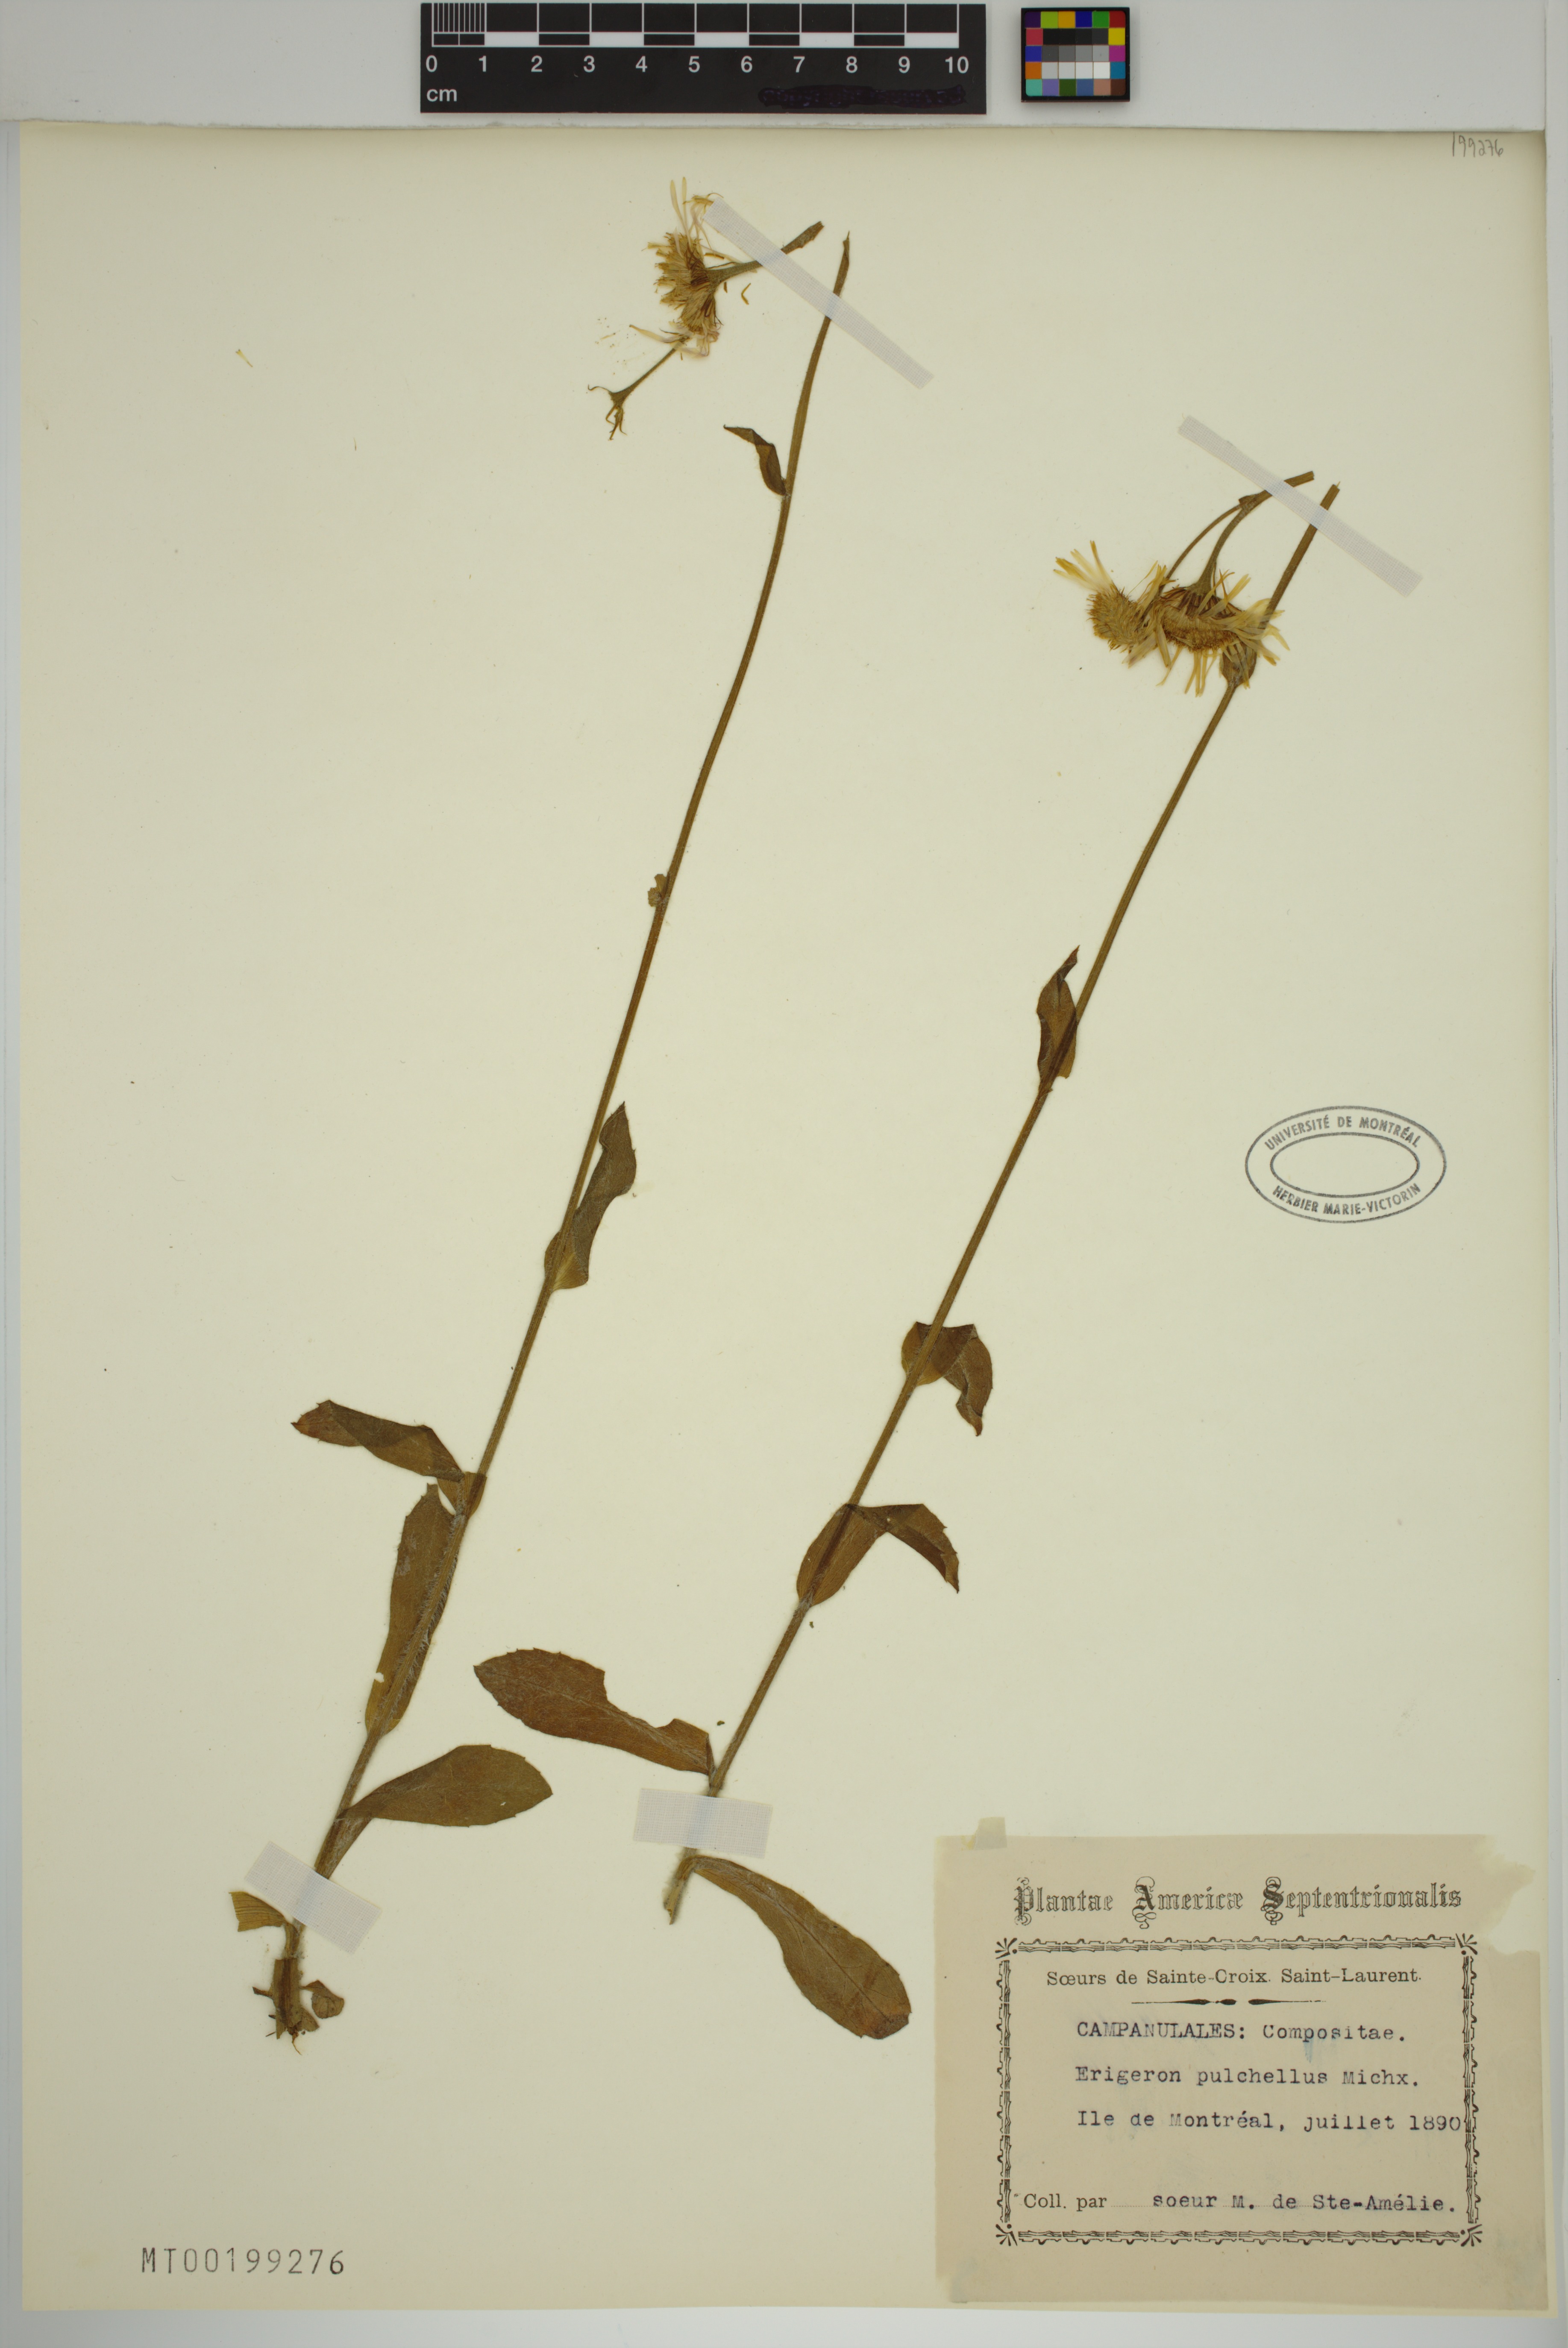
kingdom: Plantae
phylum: Tracheophyta
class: Magnoliopsida
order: Asterales
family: Asteraceae
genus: Erigeron
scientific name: Erigeron pulchellus
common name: Hairy fleabane
